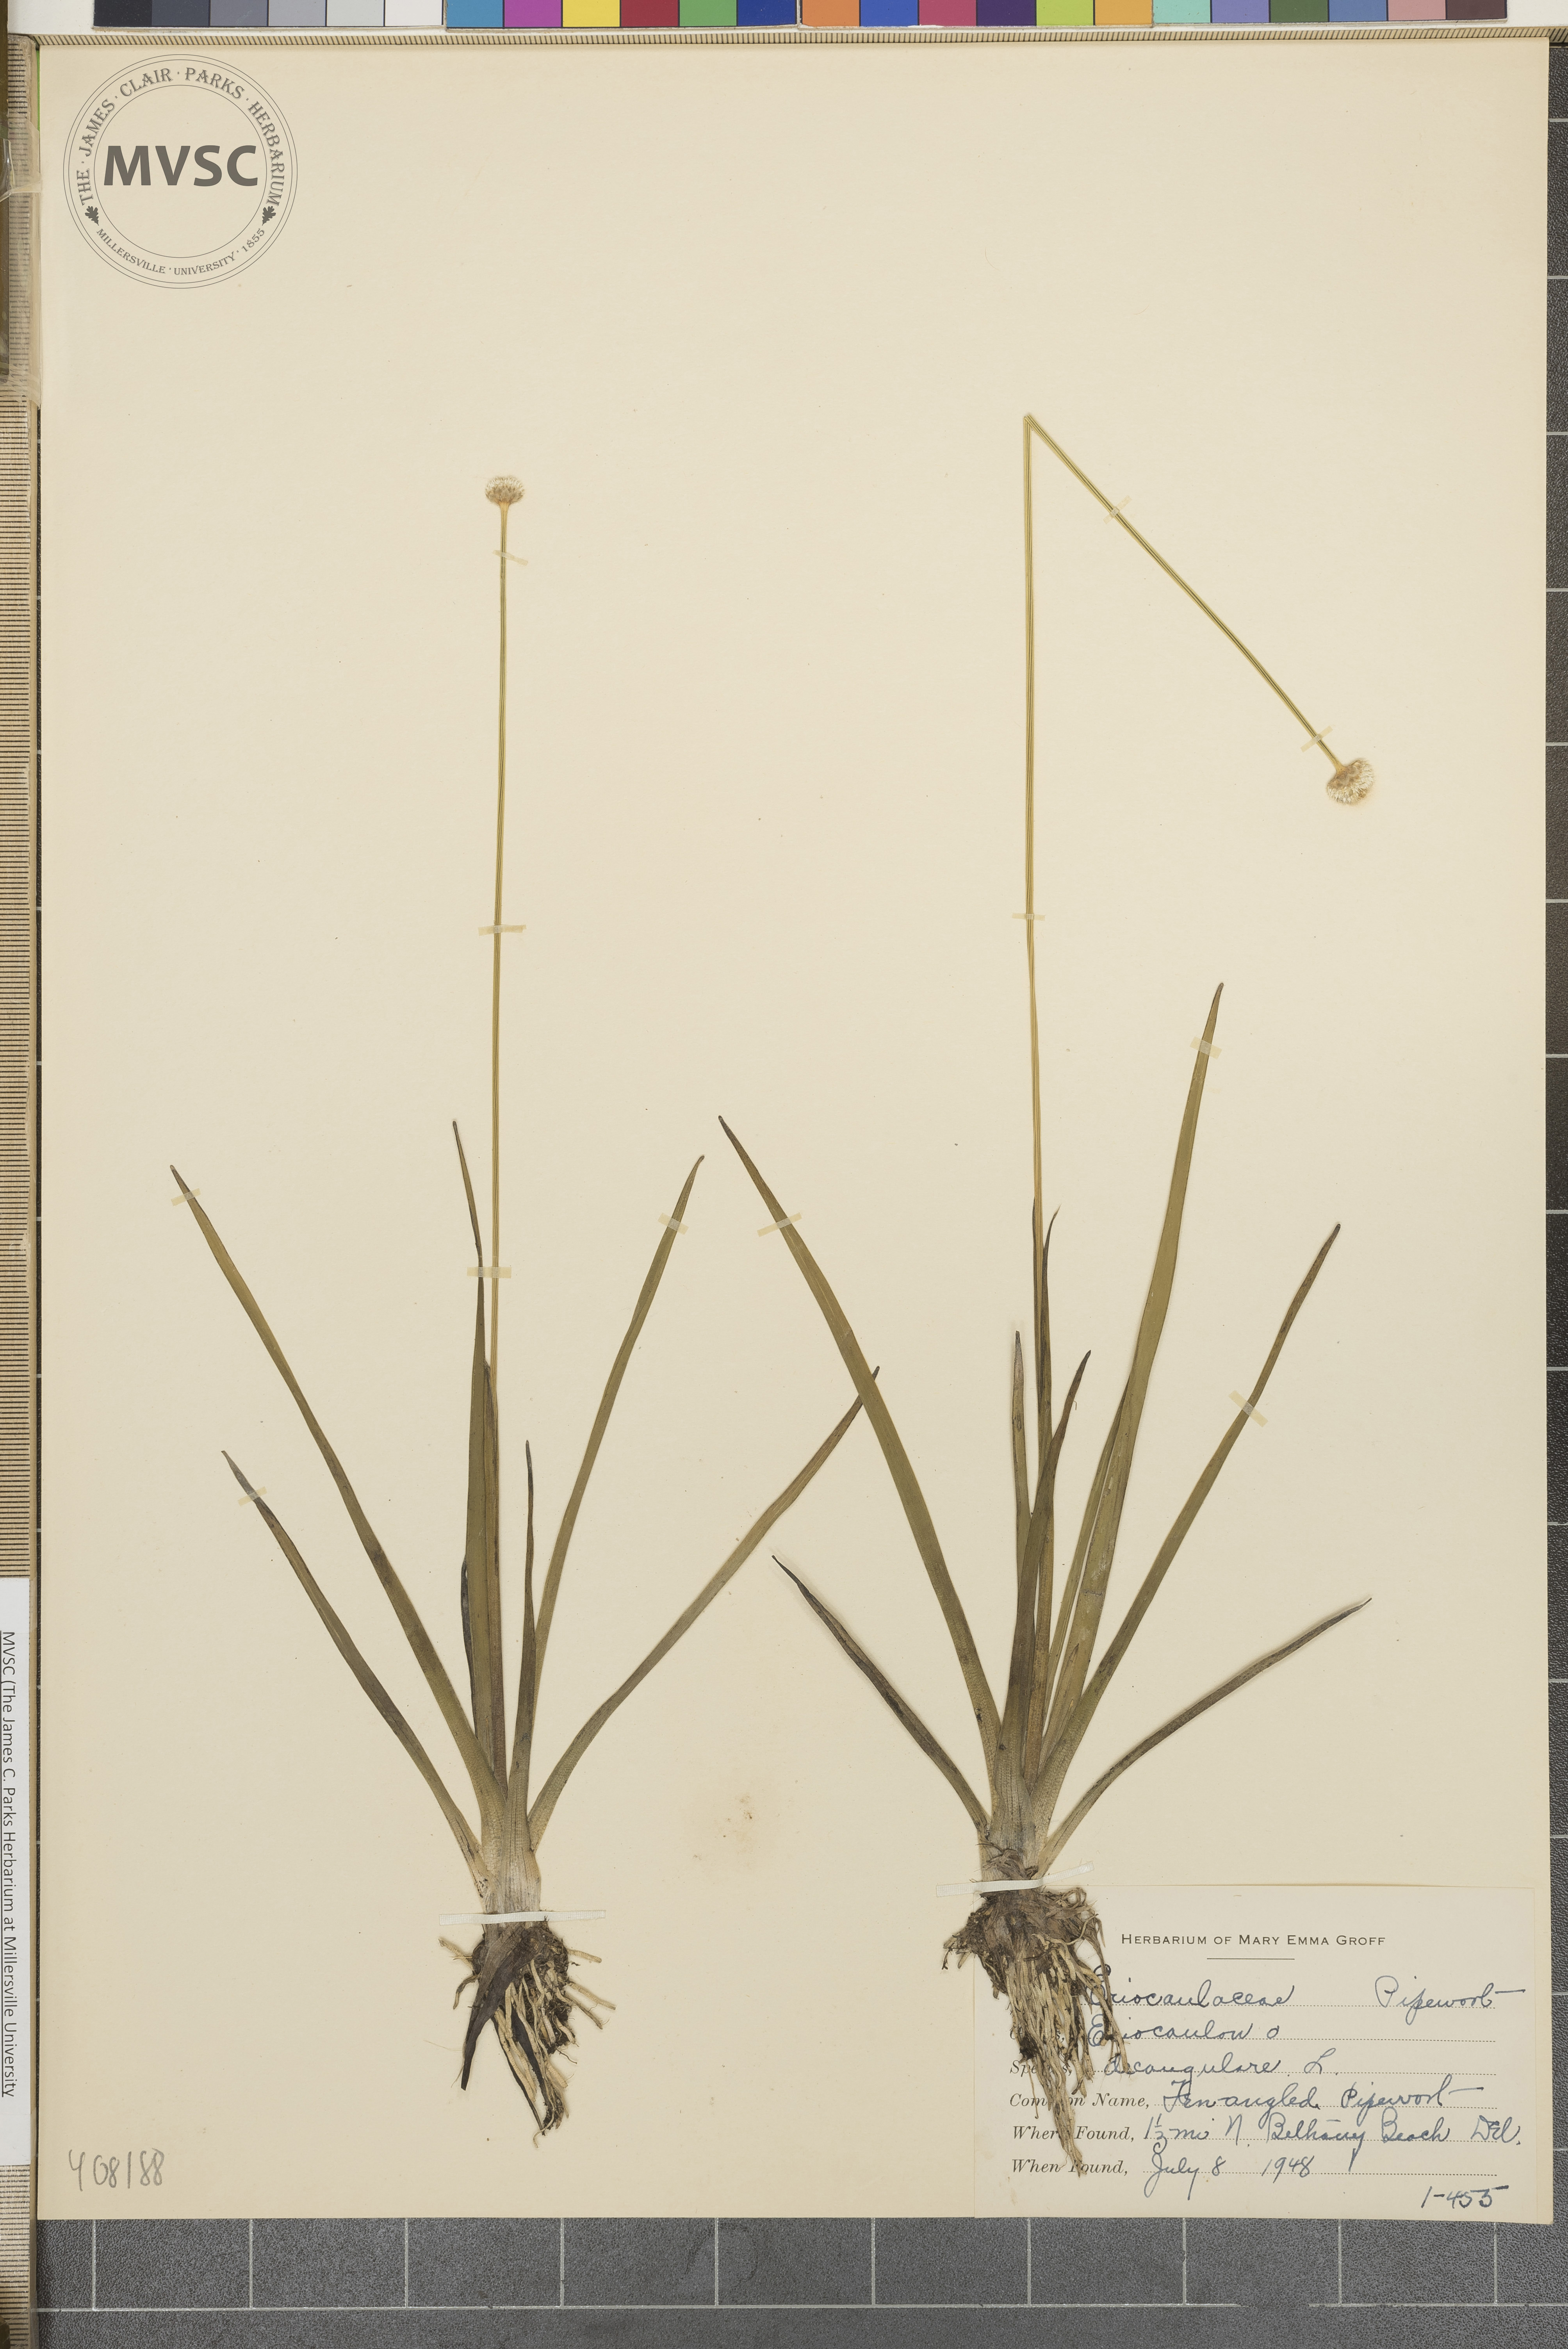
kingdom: Plantae
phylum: Tracheophyta
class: Liliopsida
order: Poales
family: Eriocaulaceae
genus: Eriocaulon
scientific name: Eriocaulon decangulare
